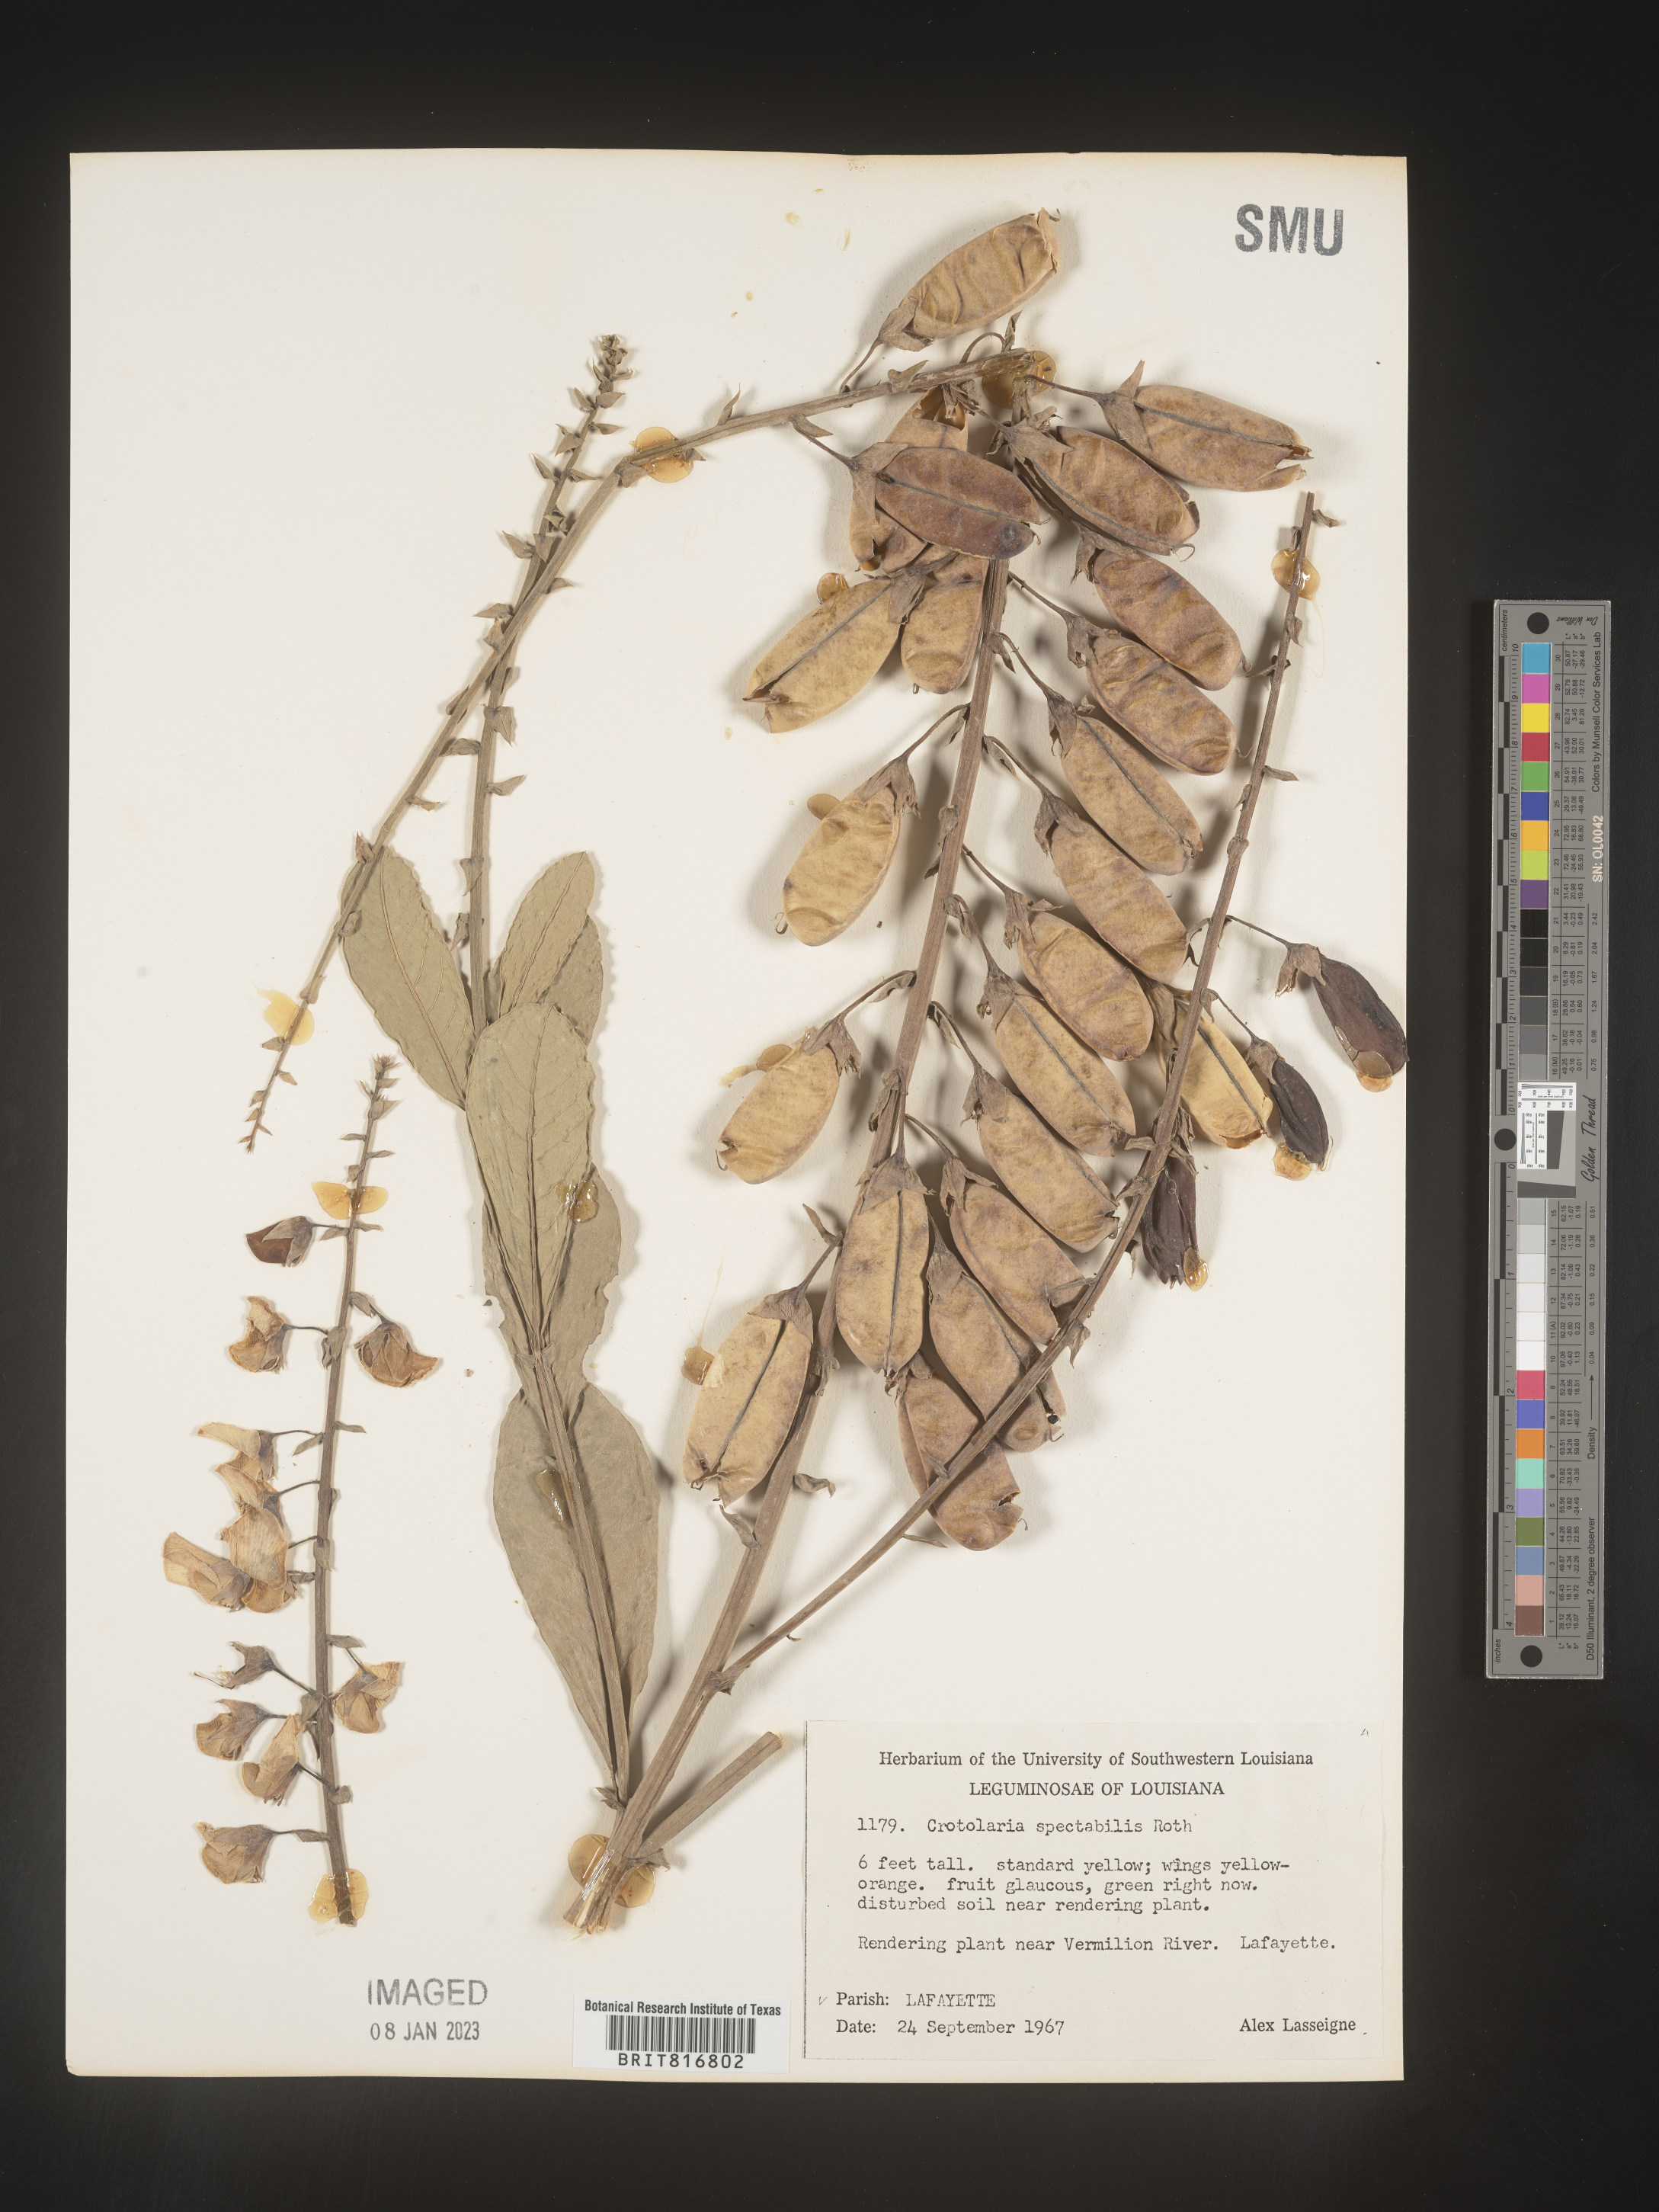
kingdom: Plantae
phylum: Tracheophyta
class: Magnoliopsida
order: Fabales
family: Fabaceae
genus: Crotalaria
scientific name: Crotalaria spectabilis
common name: Showy rattlebox
